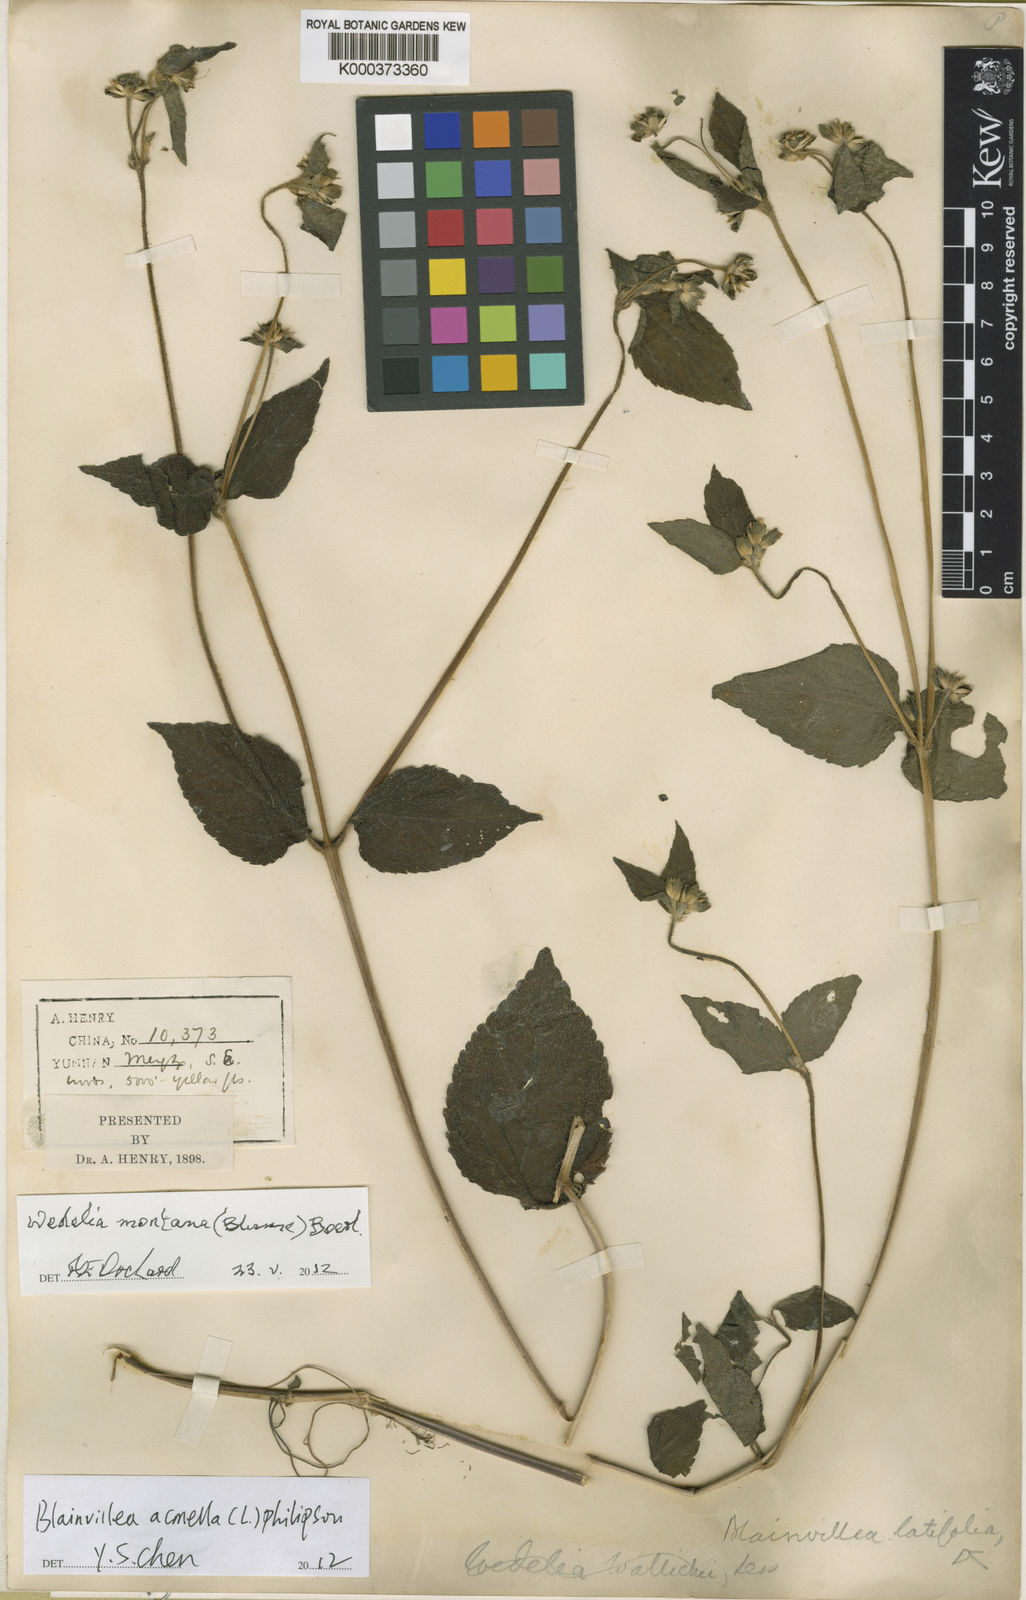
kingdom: Plantae
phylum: Tracheophyta
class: Magnoliopsida
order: Asterales
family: Asteraceae
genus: Indocypraea
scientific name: Indocypraea montana
